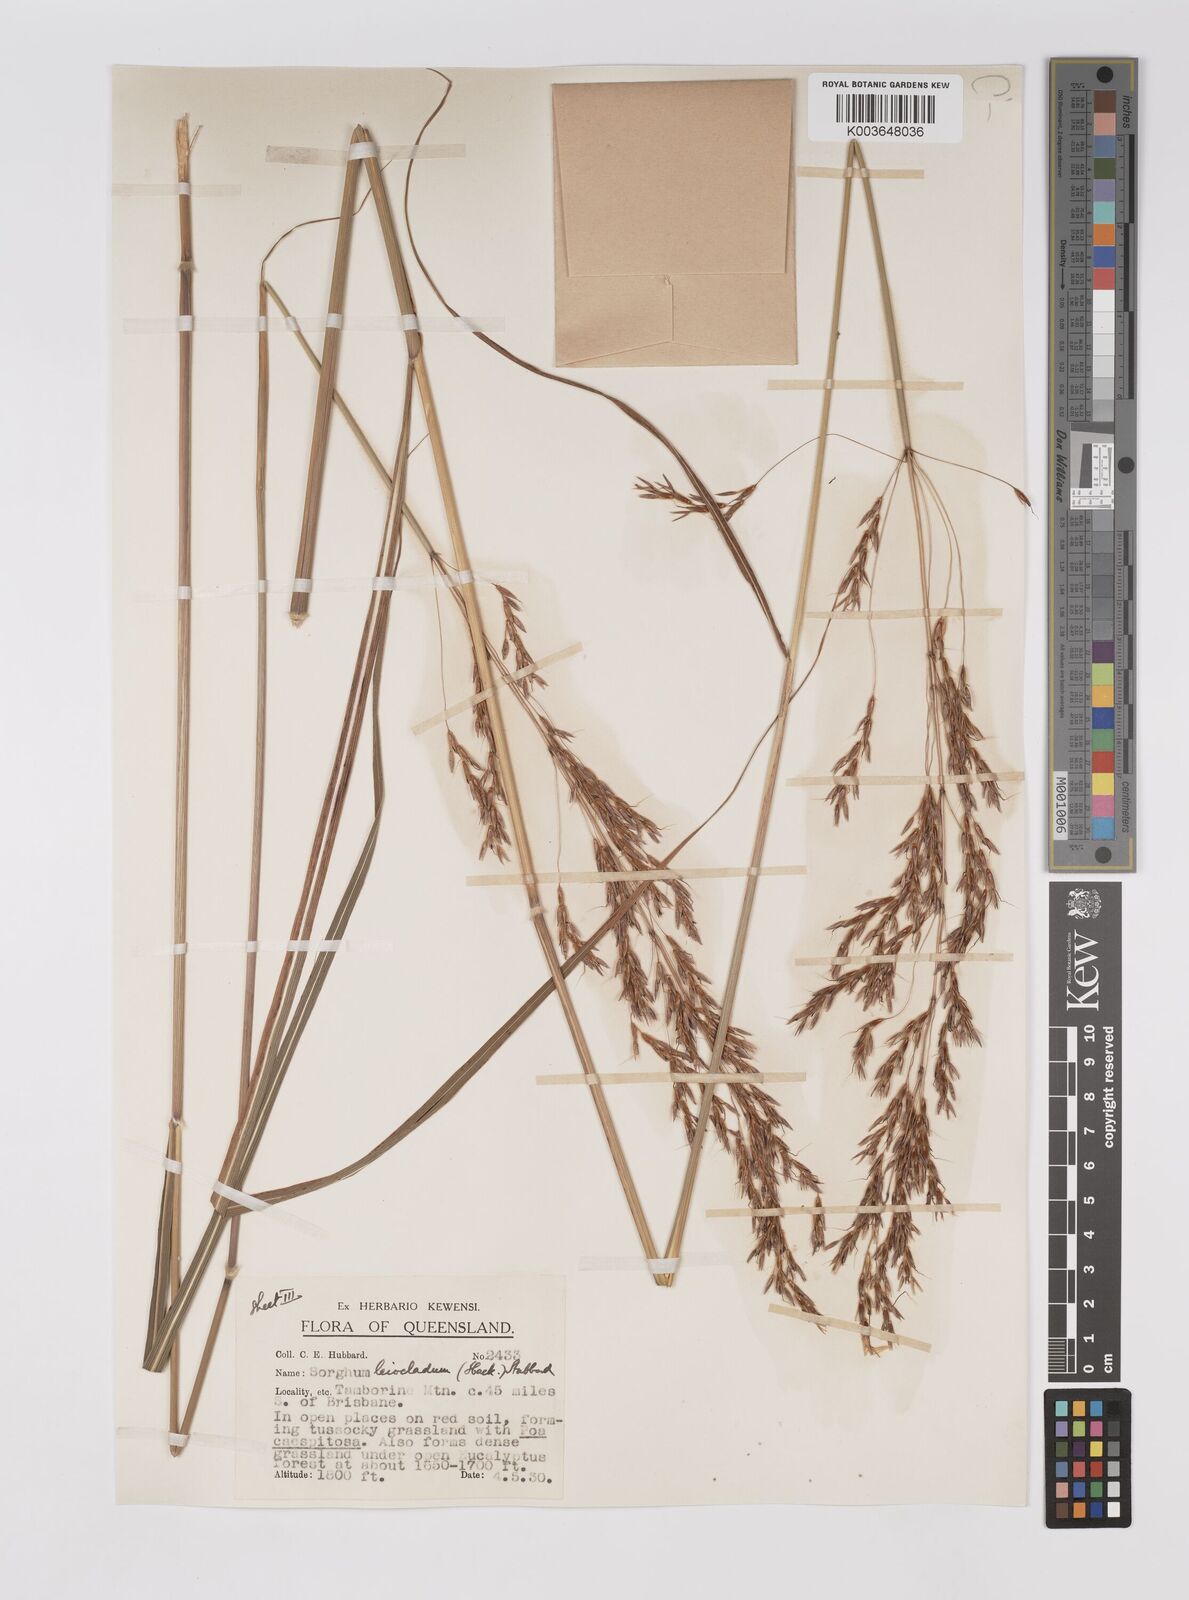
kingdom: Plantae
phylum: Tracheophyta
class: Liliopsida
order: Poales
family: Poaceae
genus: Sarga
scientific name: Sarga leioclada
